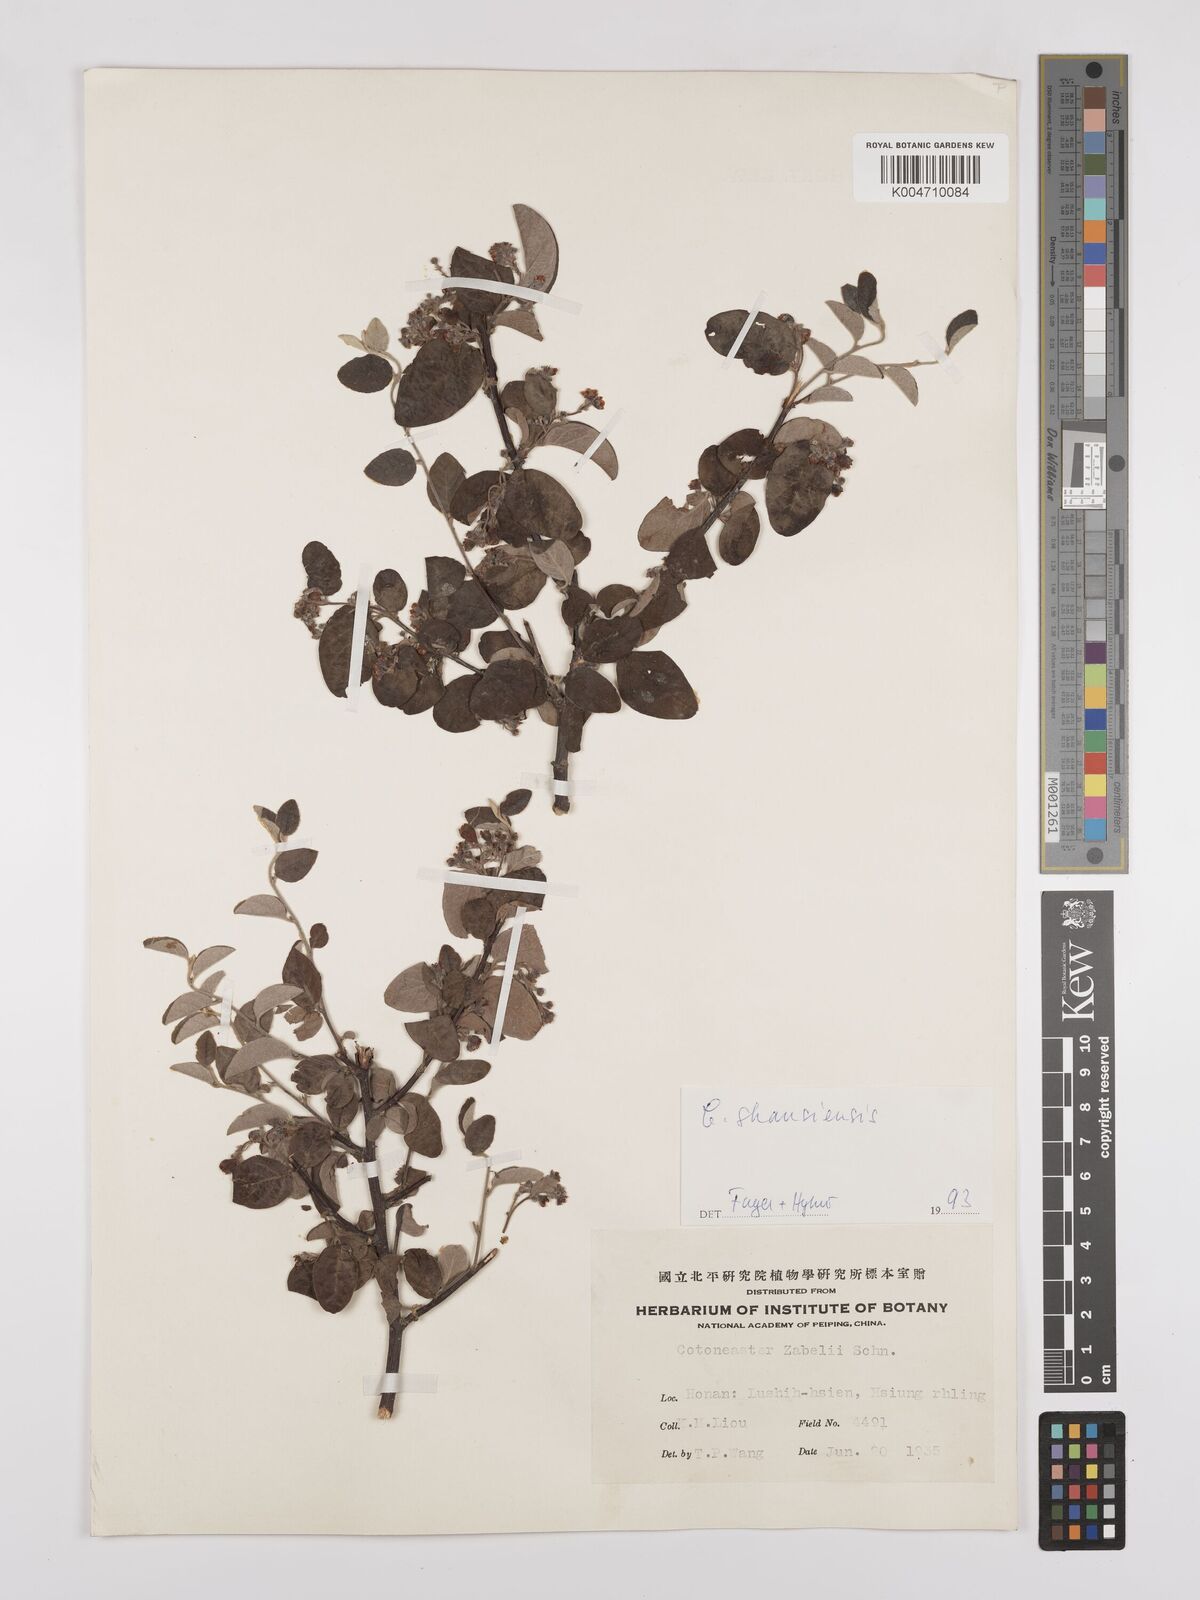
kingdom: Plantae
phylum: Tracheophyta
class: Magnoliopsida
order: Rosales
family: Rosaceae
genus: Cotoneaster
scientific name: Cotoneaster zabelii
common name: Cherryred cotoneaster
